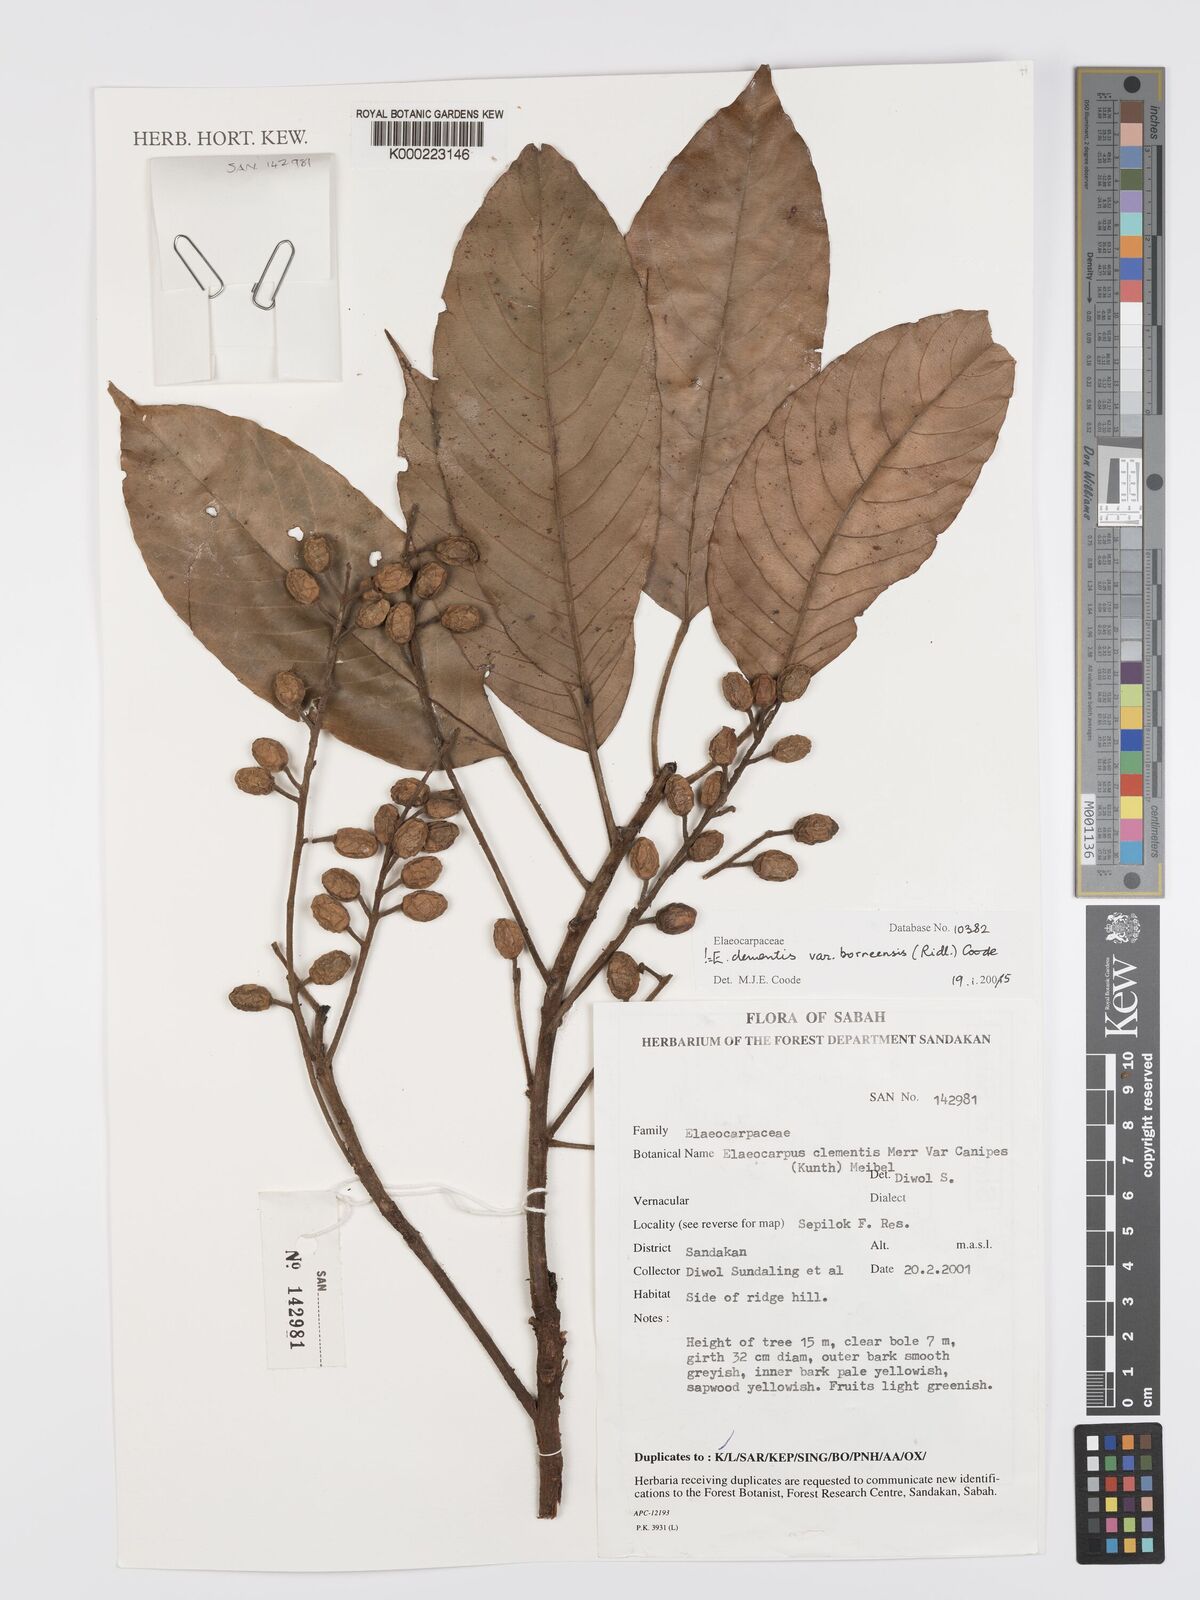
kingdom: Plantae
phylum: Tracheophyta
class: Magnoliopsida
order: Oxalidales
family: Elaeocarpaceae
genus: Elaeocarpus
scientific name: Elaeocarpus clementis
